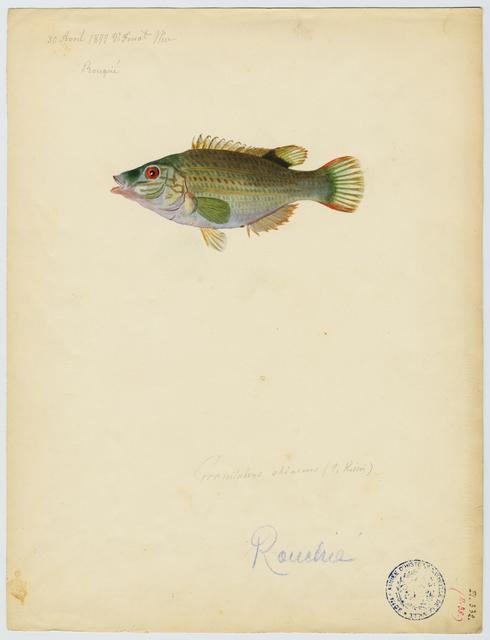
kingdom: Animalia
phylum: Chordata
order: Perciformes
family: Labridae
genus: Symphodus
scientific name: Symphodus roissali
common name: Five-spotted wrasse
